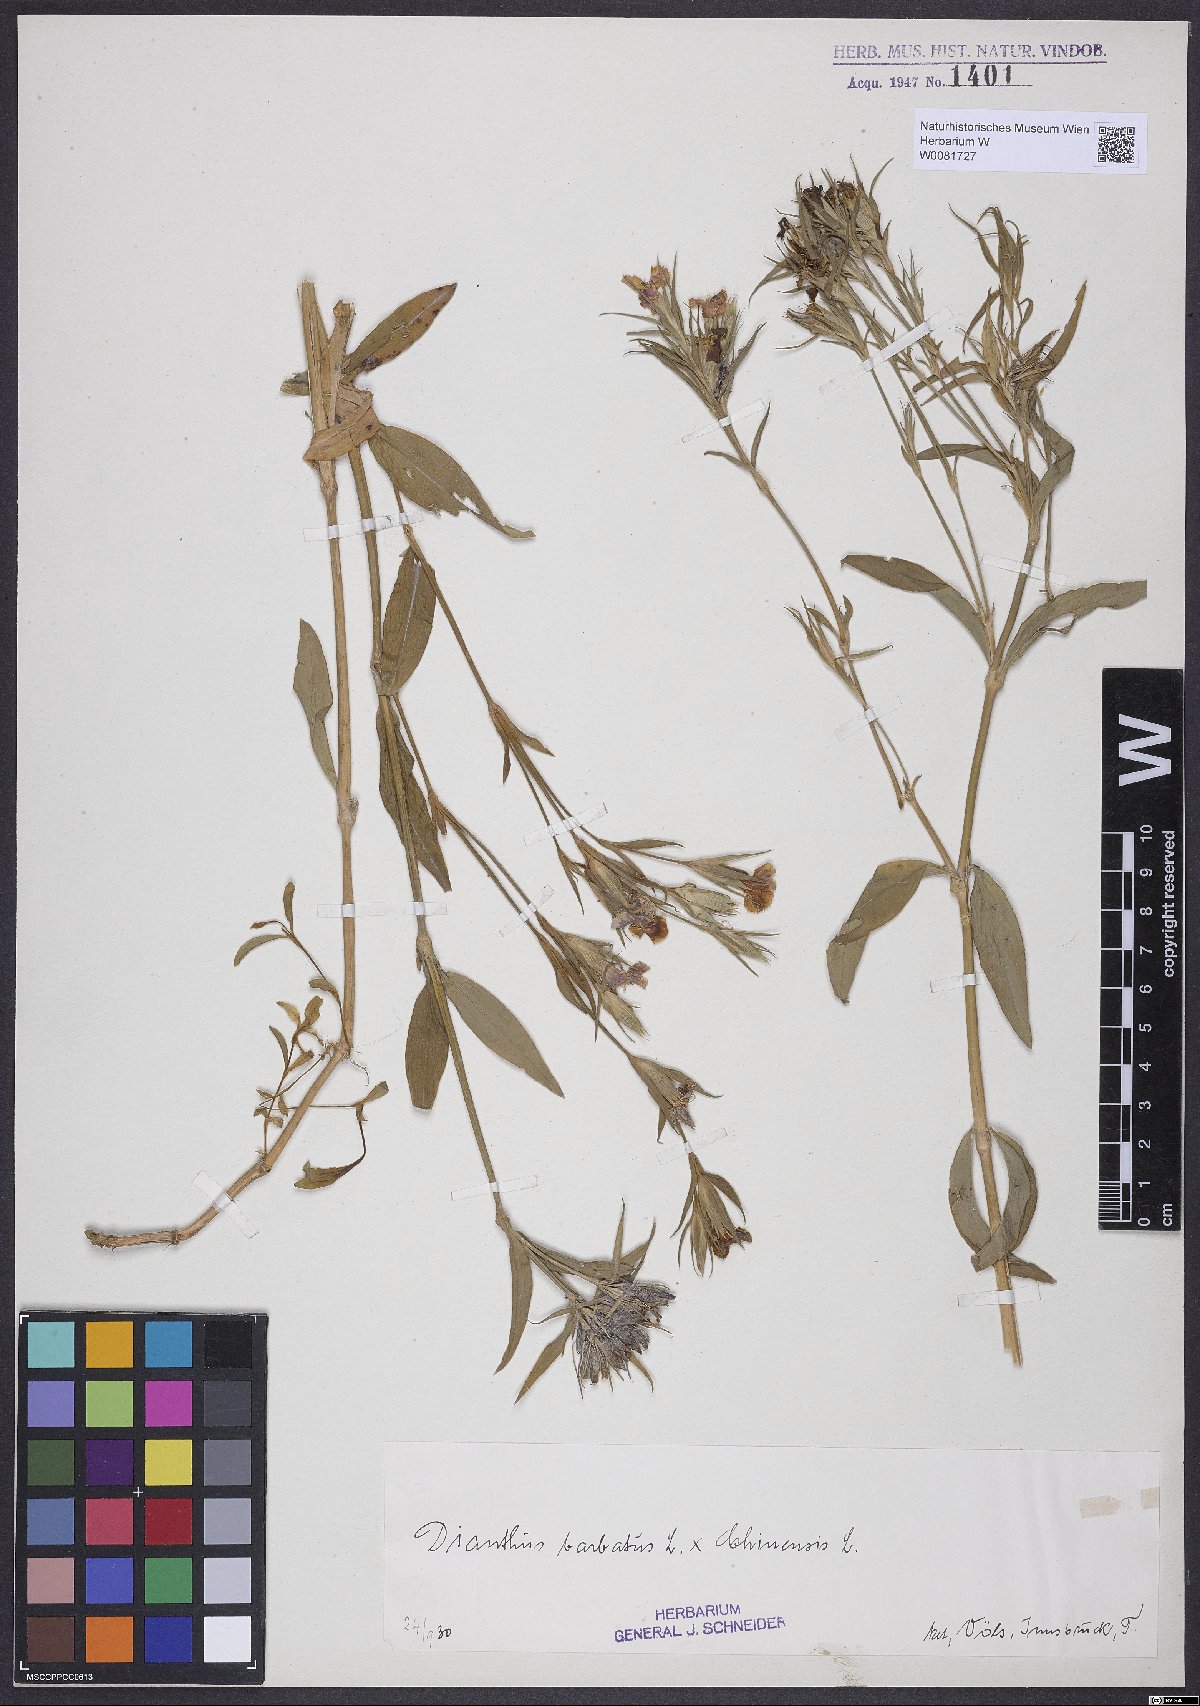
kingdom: Plantae
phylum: Tracheophyta
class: Magnoliopsida
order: Caryophyllales
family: Caryophyllaceae
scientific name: Caryophyllaceae
